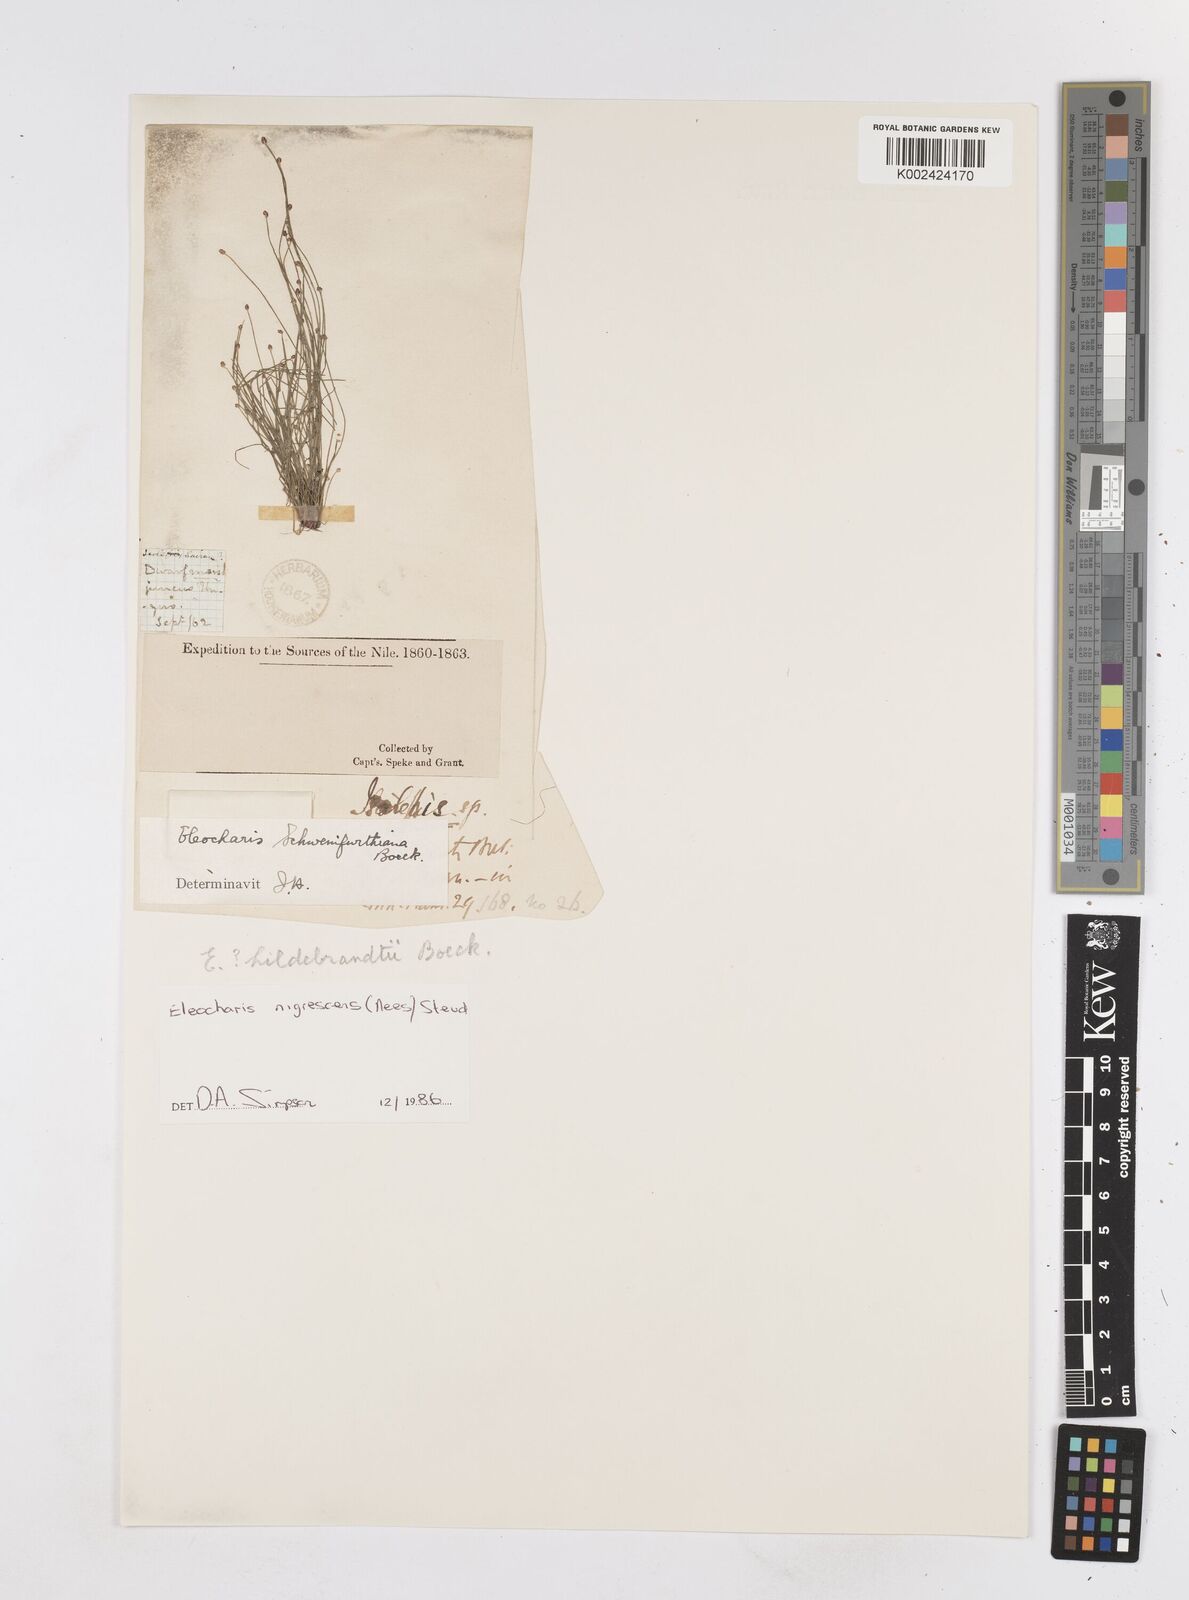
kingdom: Plantae
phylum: Tracheophyta
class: Liliopsida
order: Poales
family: Cyperaceae
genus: Eleocharis
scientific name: Eleocharis nigrescens
